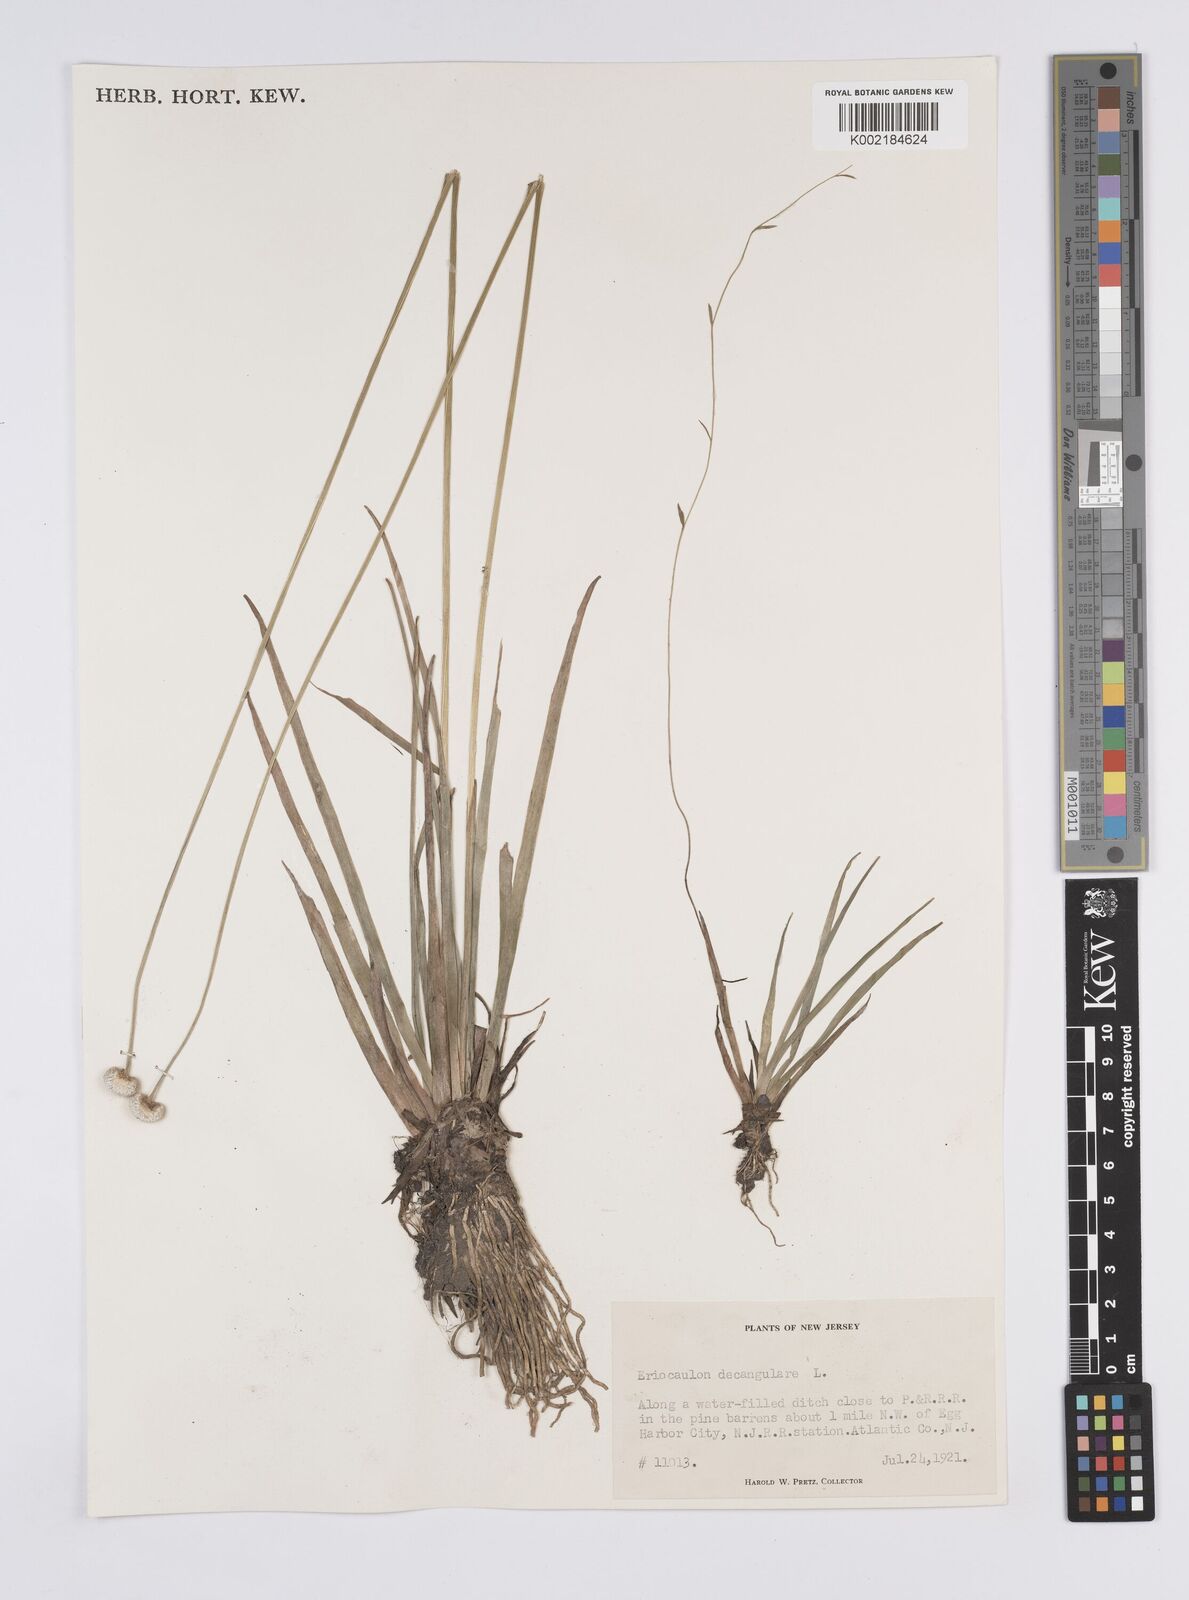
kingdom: Plantae
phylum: Tracheophyta
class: Liliopsida
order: Poales
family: Eriocaulaceae
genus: Eriocaulon
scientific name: Eriocaulon decangulare
